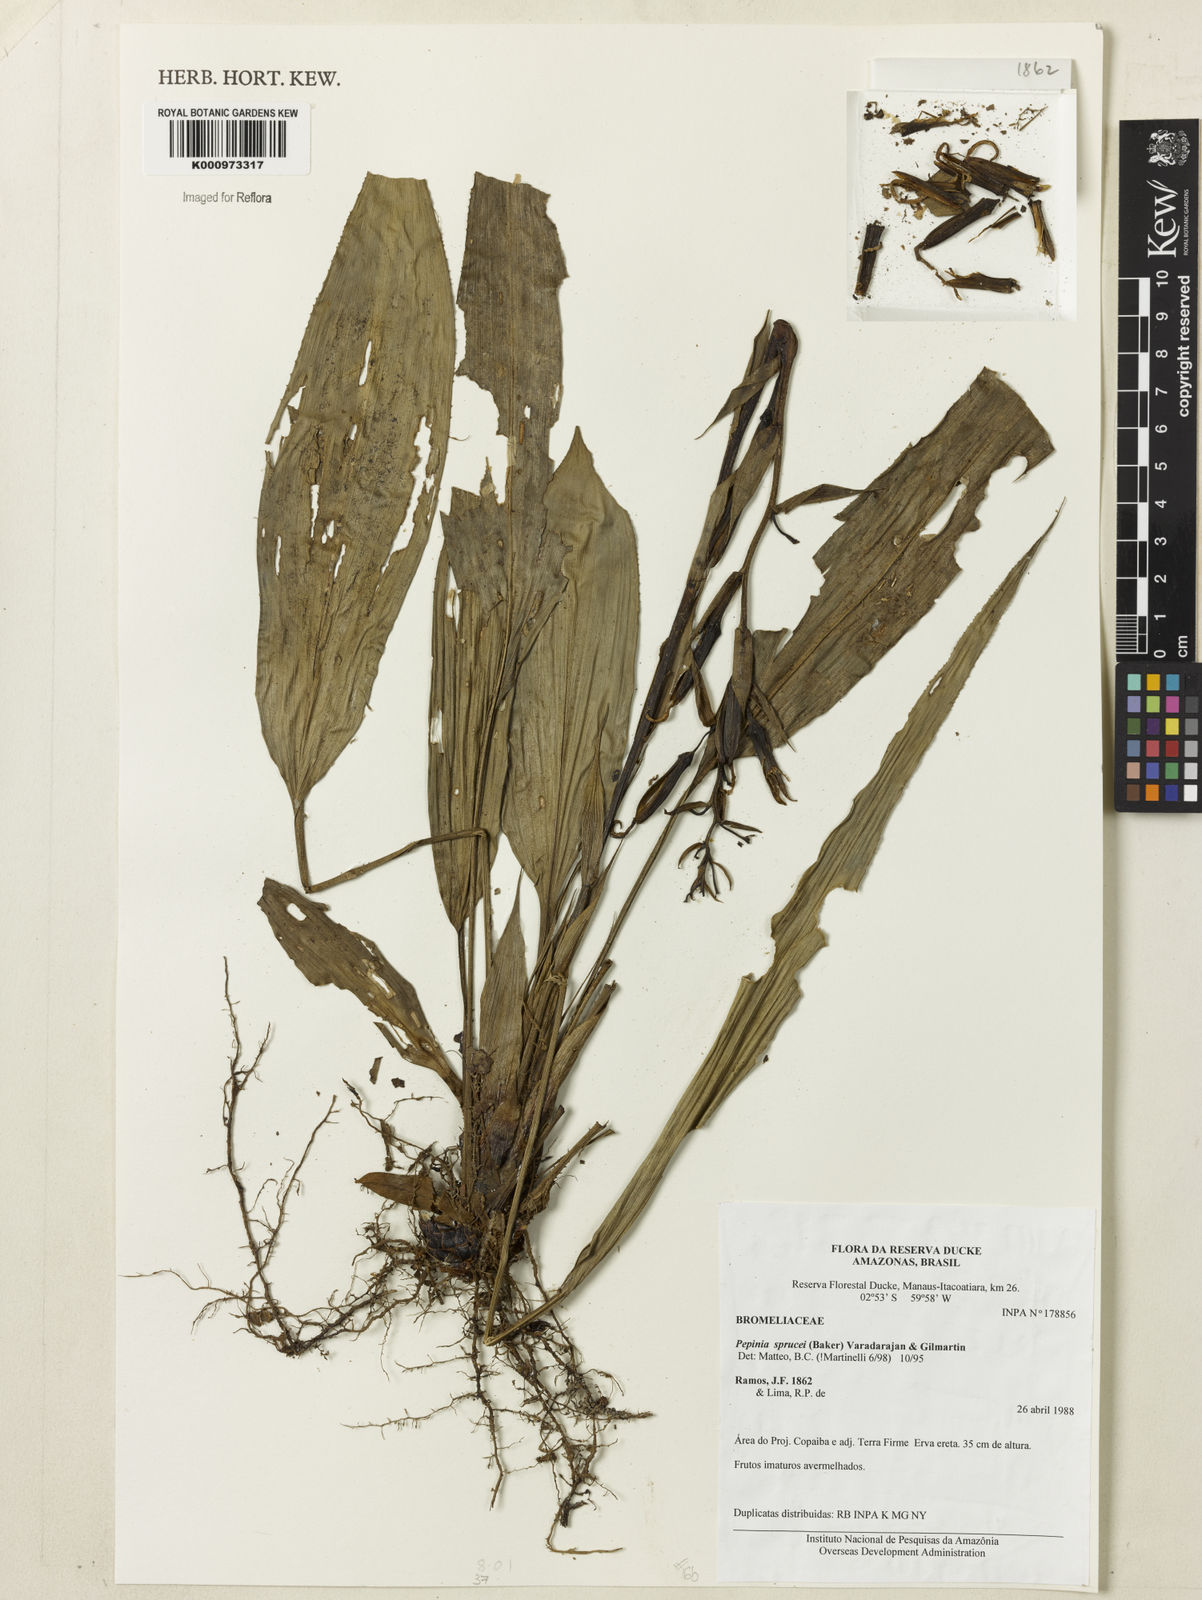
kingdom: Plantae
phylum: Tracheophyta
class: Liliopsida
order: Poales
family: Bromeliaceae
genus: Pitcairnia
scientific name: Pitcairnia sprucei
